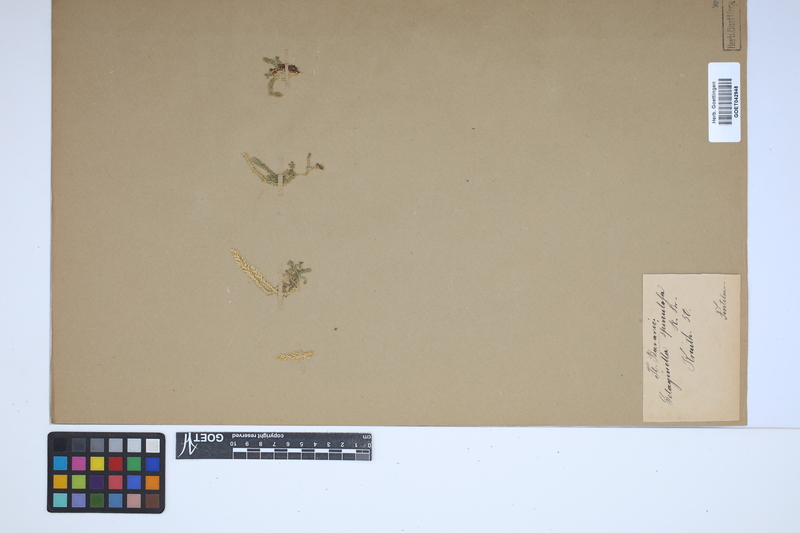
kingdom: Plantae
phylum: Tracheophyta
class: Lycopodiopsida
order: Selaginellales
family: Selaginellaceae
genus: Selaginella
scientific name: Selaginella selaginoides
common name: Prickly mountain-moss
